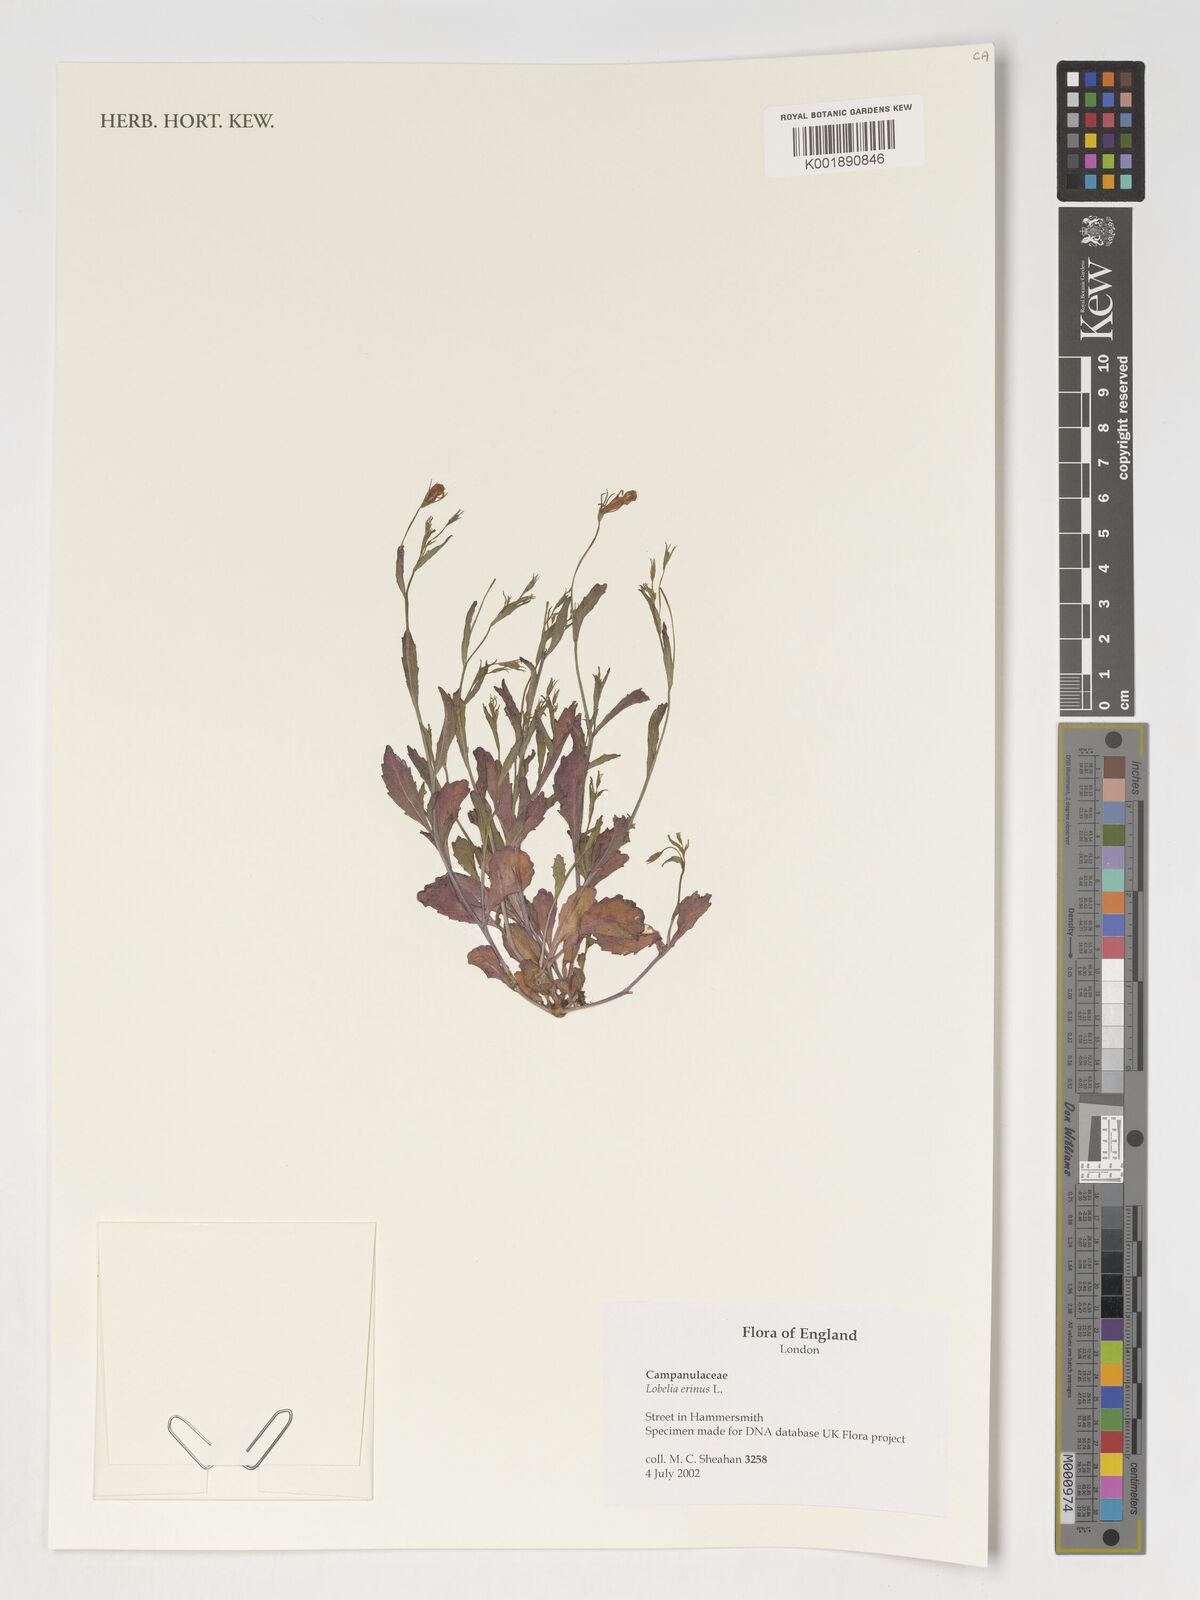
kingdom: Plantae
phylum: Tracheophyta
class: Magnoliopsida
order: Asterales
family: Campanulaceae
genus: Lobelia
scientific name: Lobelia erinus
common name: Edging lobelia
